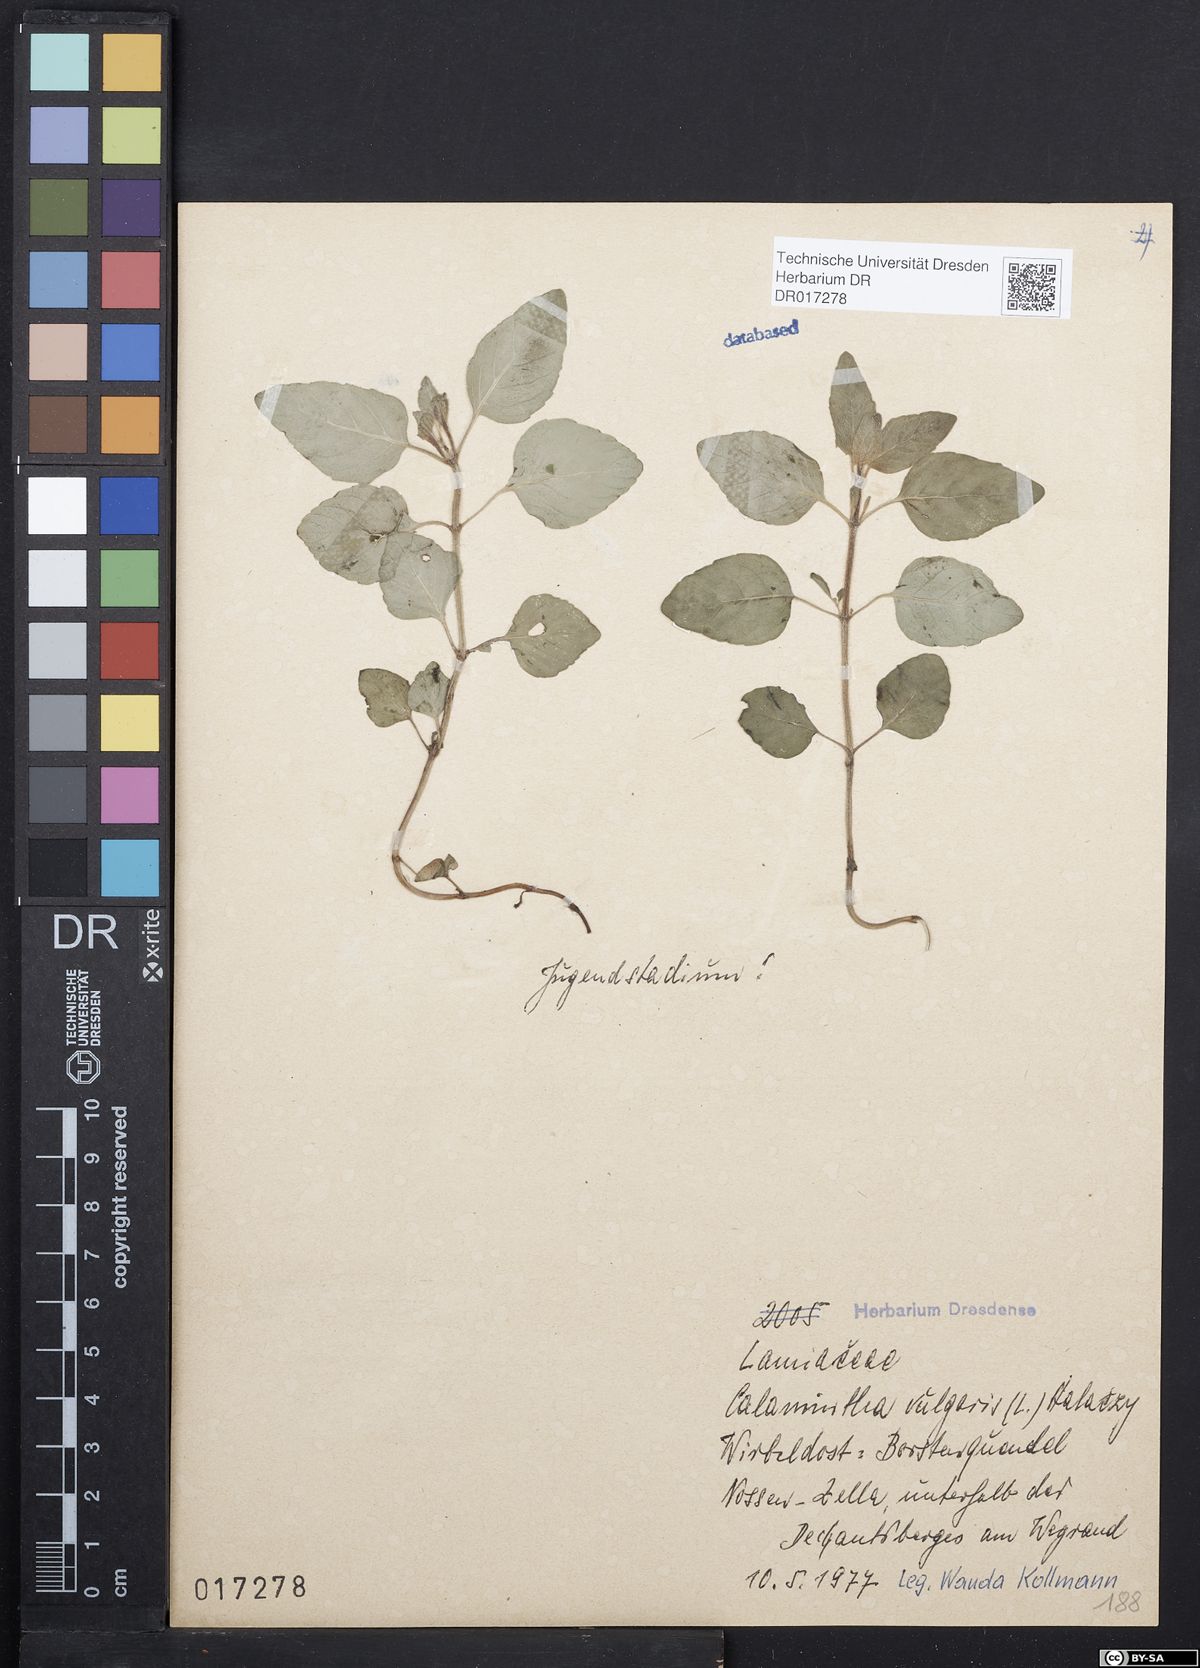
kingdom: Plantae
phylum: Tracheophyta
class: Magnoliopsida
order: Lamiales
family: Lamiaceae
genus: Clinopodium
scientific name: Clinopodium vulgare
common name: Wild basil
